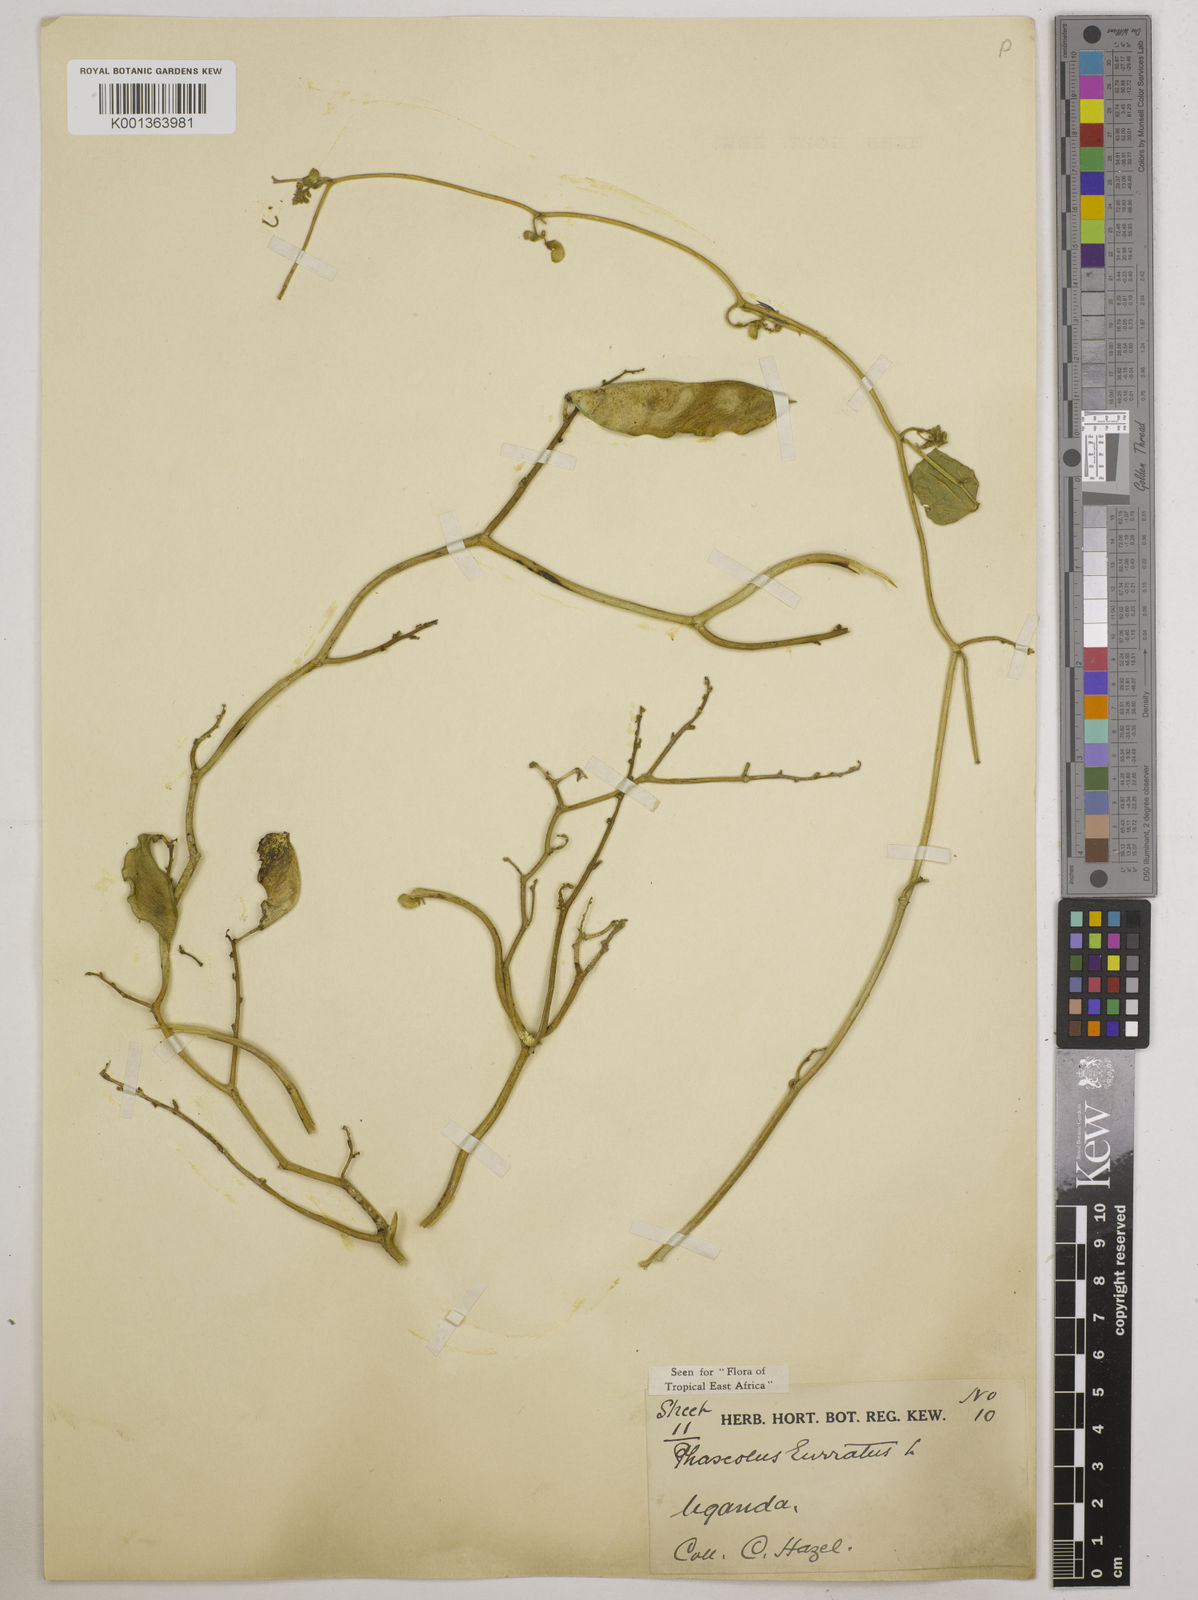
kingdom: Plantae
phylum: Tracheophyta
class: Magnoliopsida
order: Fabales
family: Fabaceae
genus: Phaseolus
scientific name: Phaseolus lunatus
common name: Sieva bean
